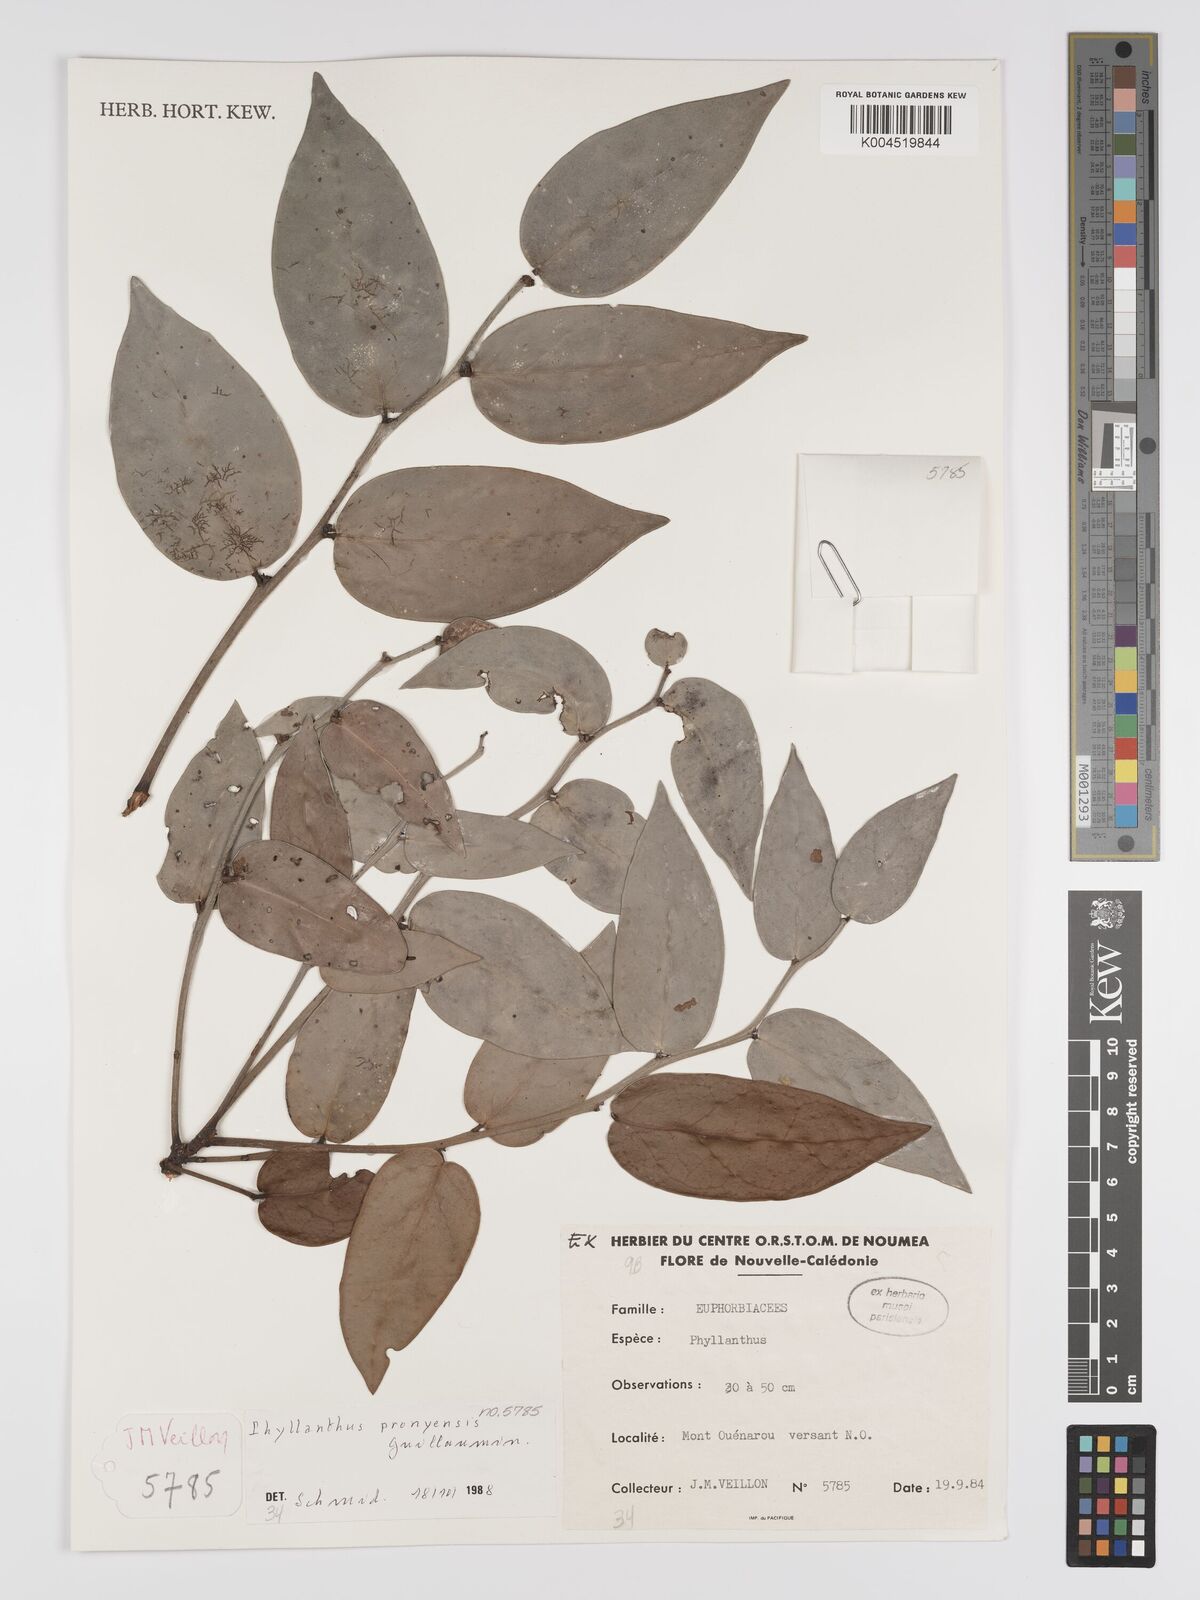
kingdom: Plantae
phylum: Tracheophyta
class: Magnoliopsida
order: Malpighiales
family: Phyllanthaceae
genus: Phyllanthus
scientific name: Phyllanthus pronyensis
